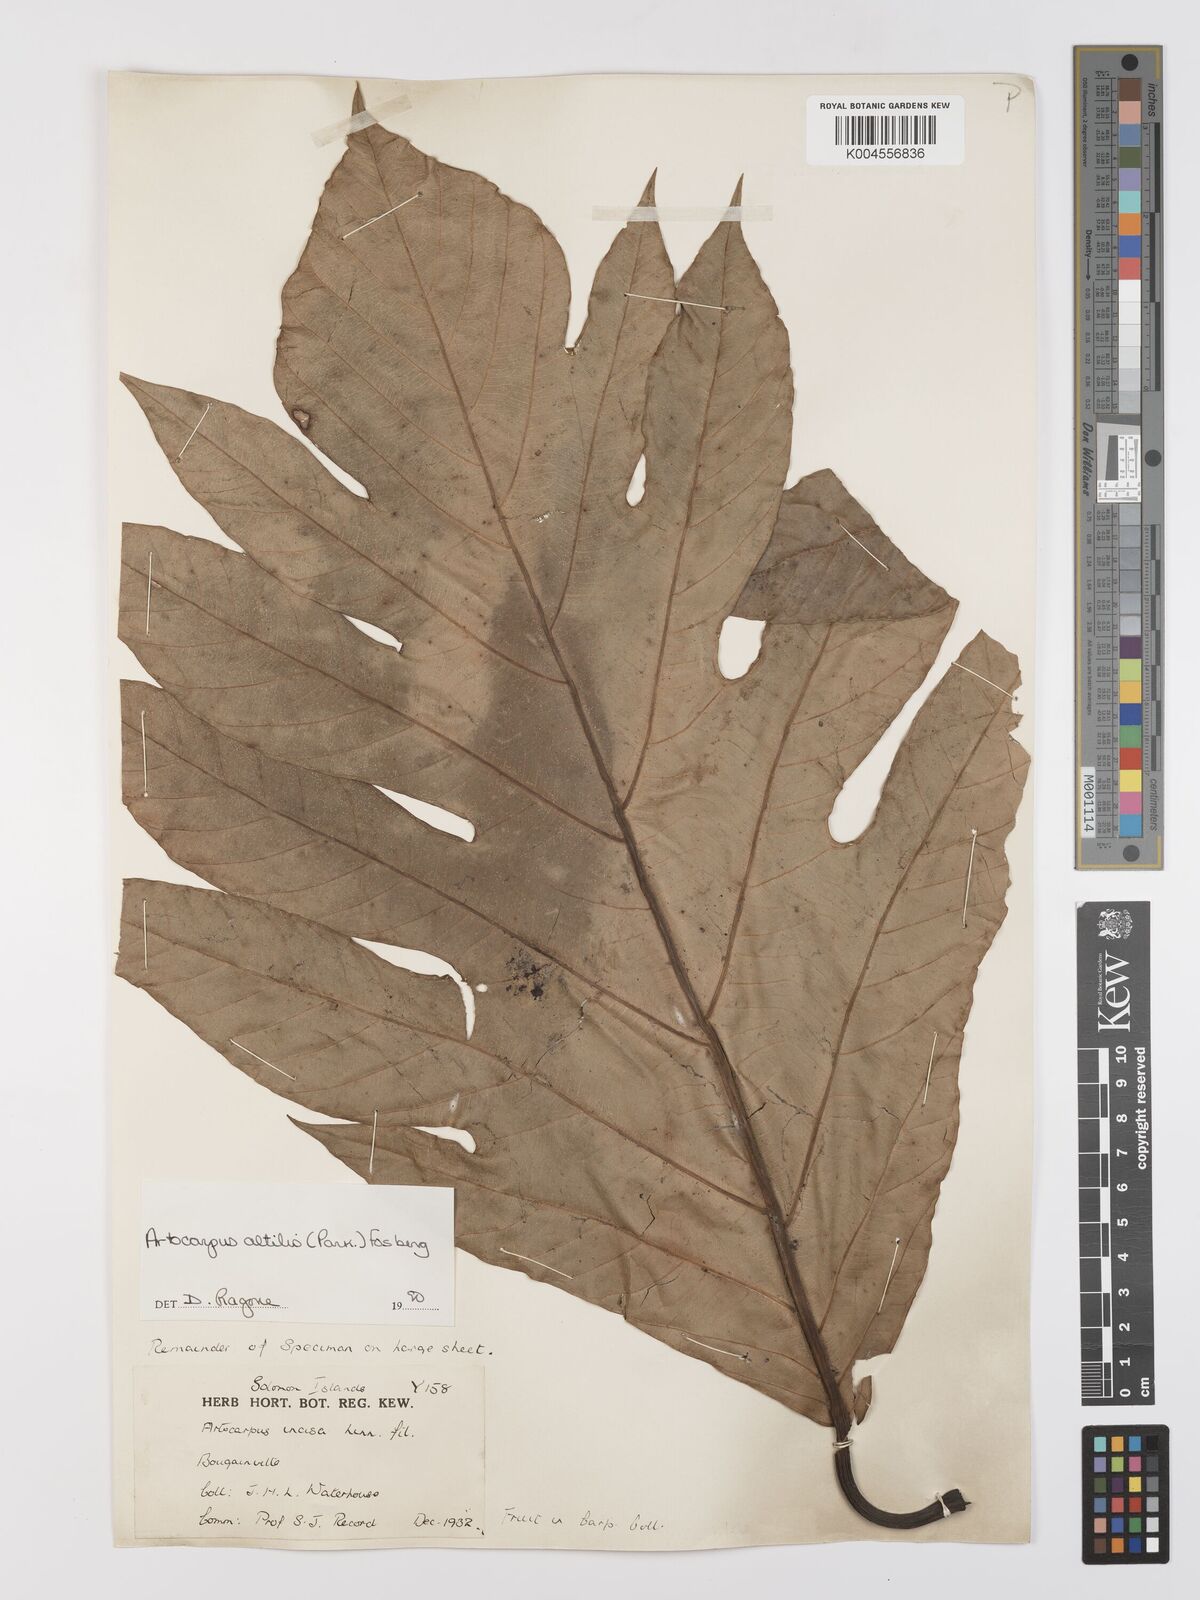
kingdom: Plantae
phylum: Tracheophyta
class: Magnoliopsida
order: Rosales
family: Moraceae
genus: Artocarpus
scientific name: Artocarpus altilis
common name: Breadfruit
